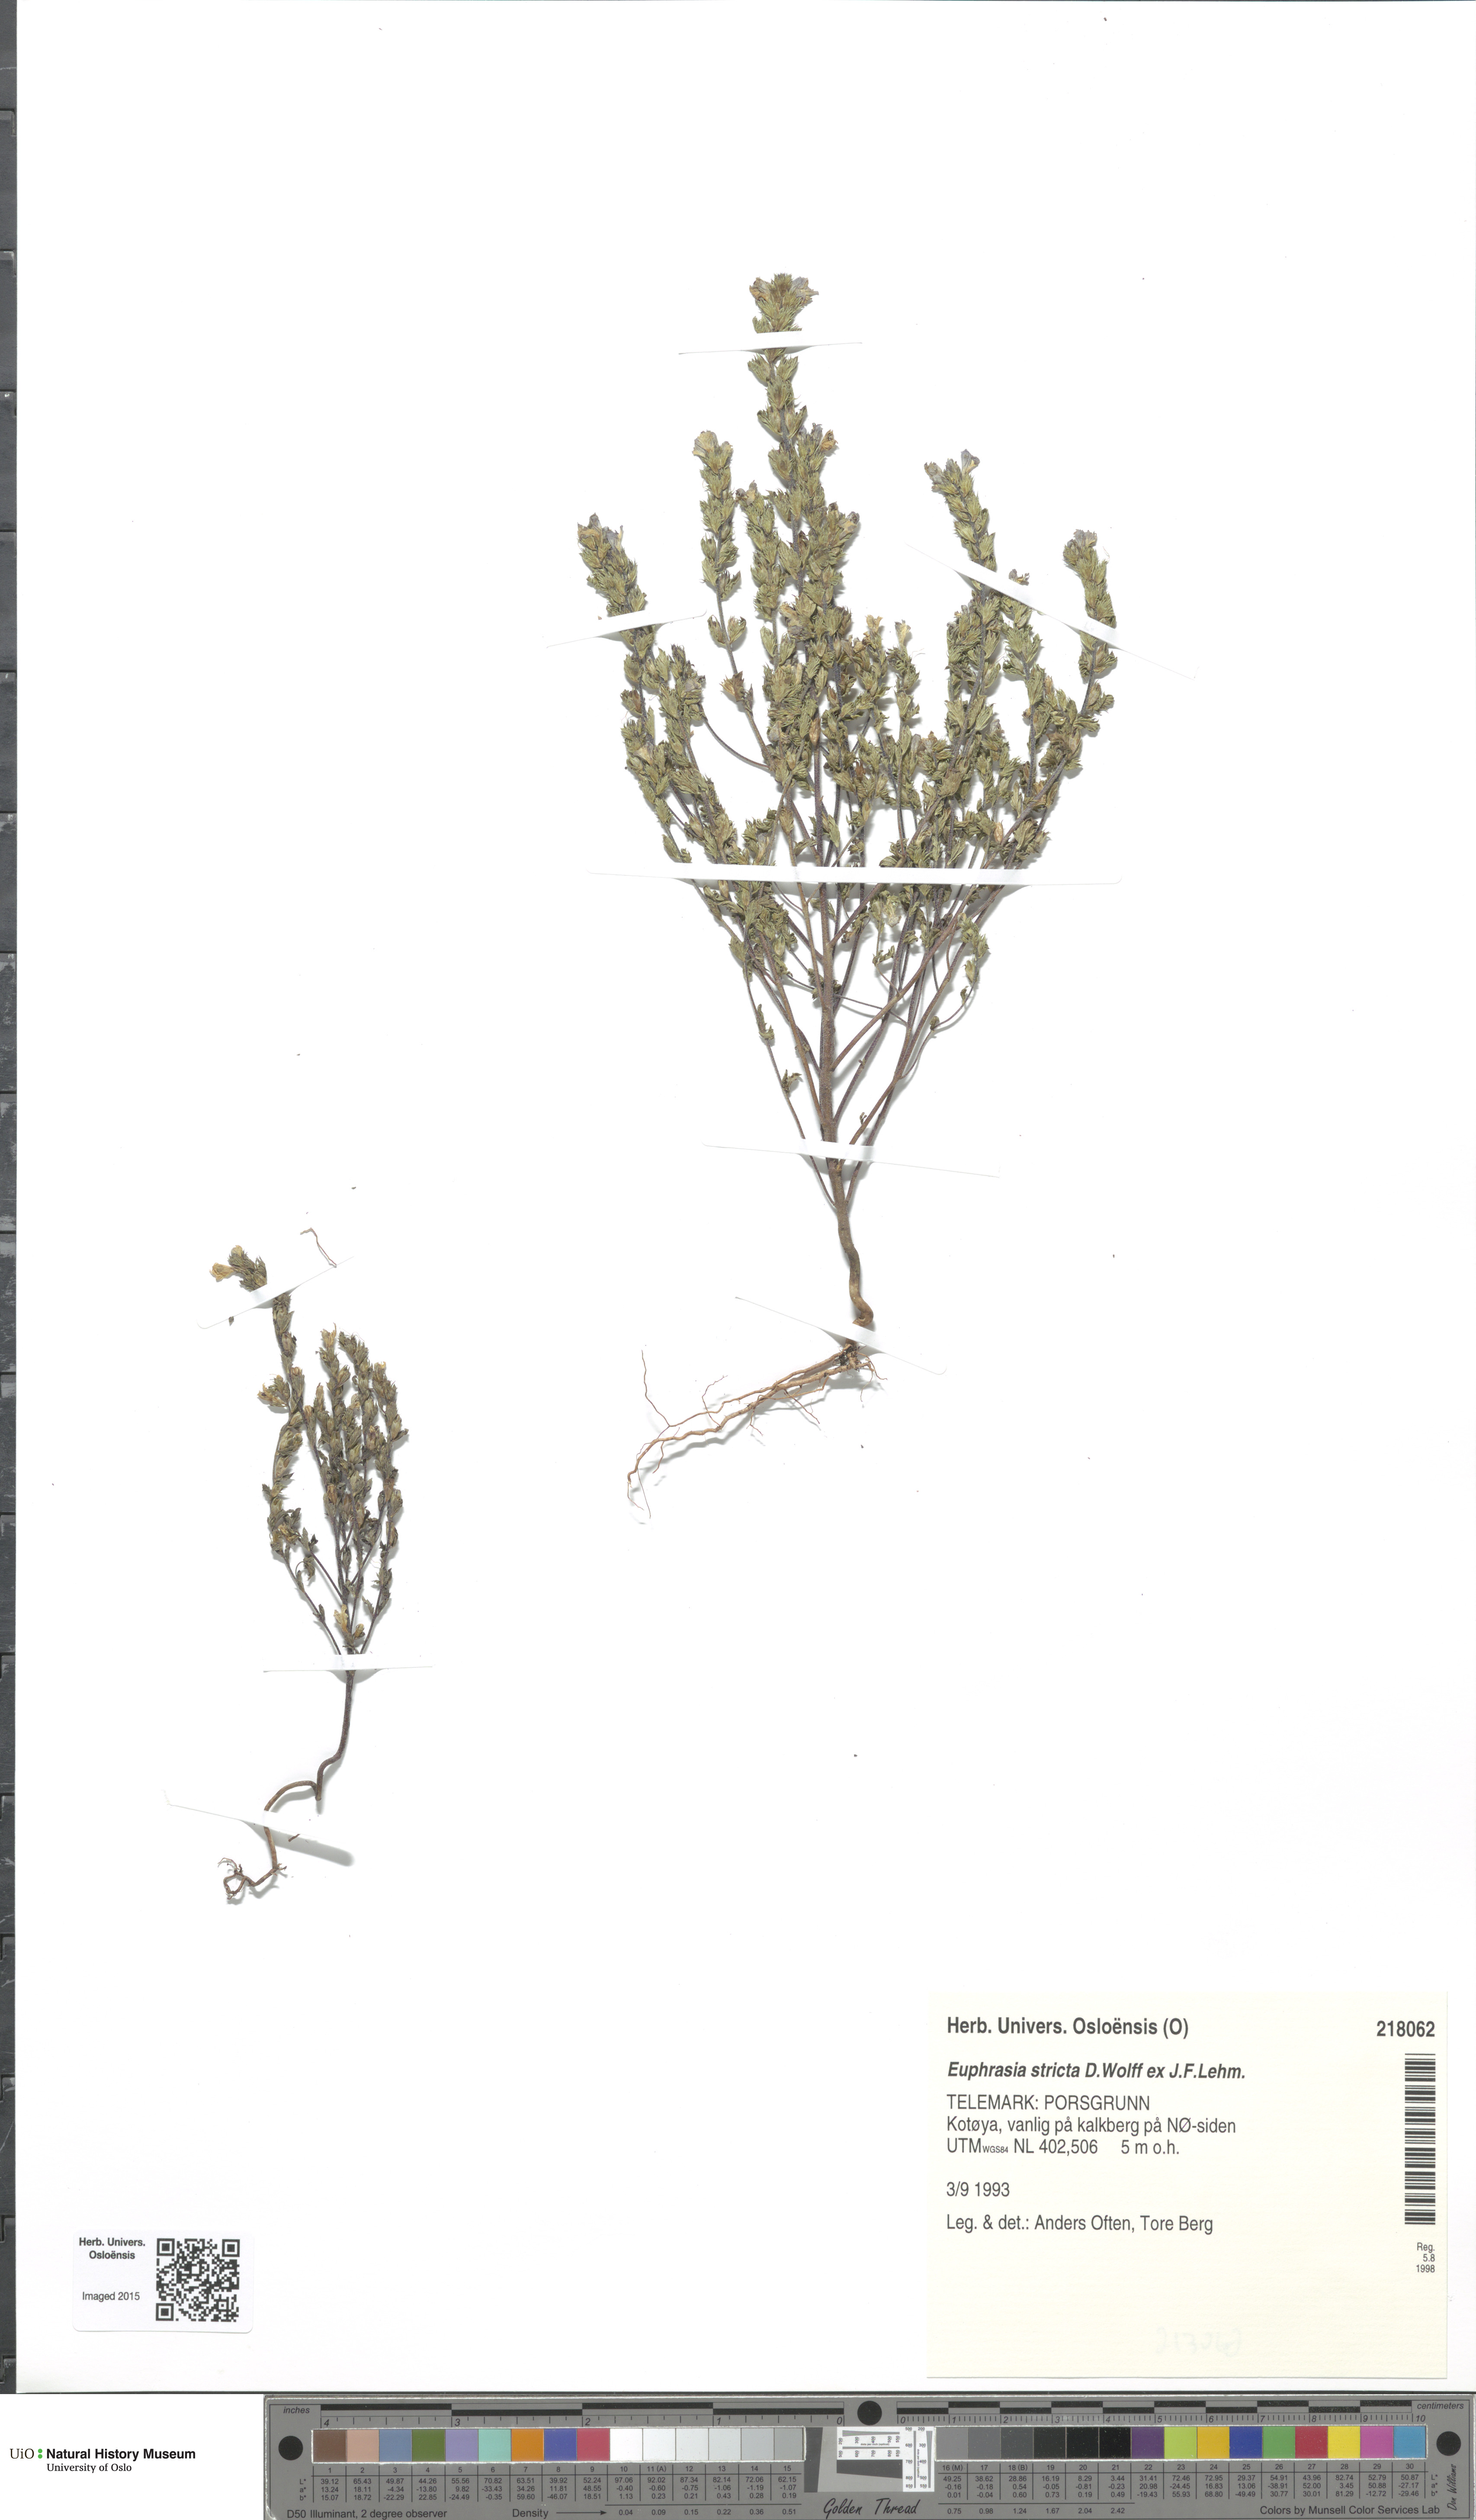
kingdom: Plantae
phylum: Tracheophyta
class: Magnoliopsida
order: Lamiales
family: Orobanchaceae
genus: Euphrasia
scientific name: Euphrasia stricta
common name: Drug eyebright
